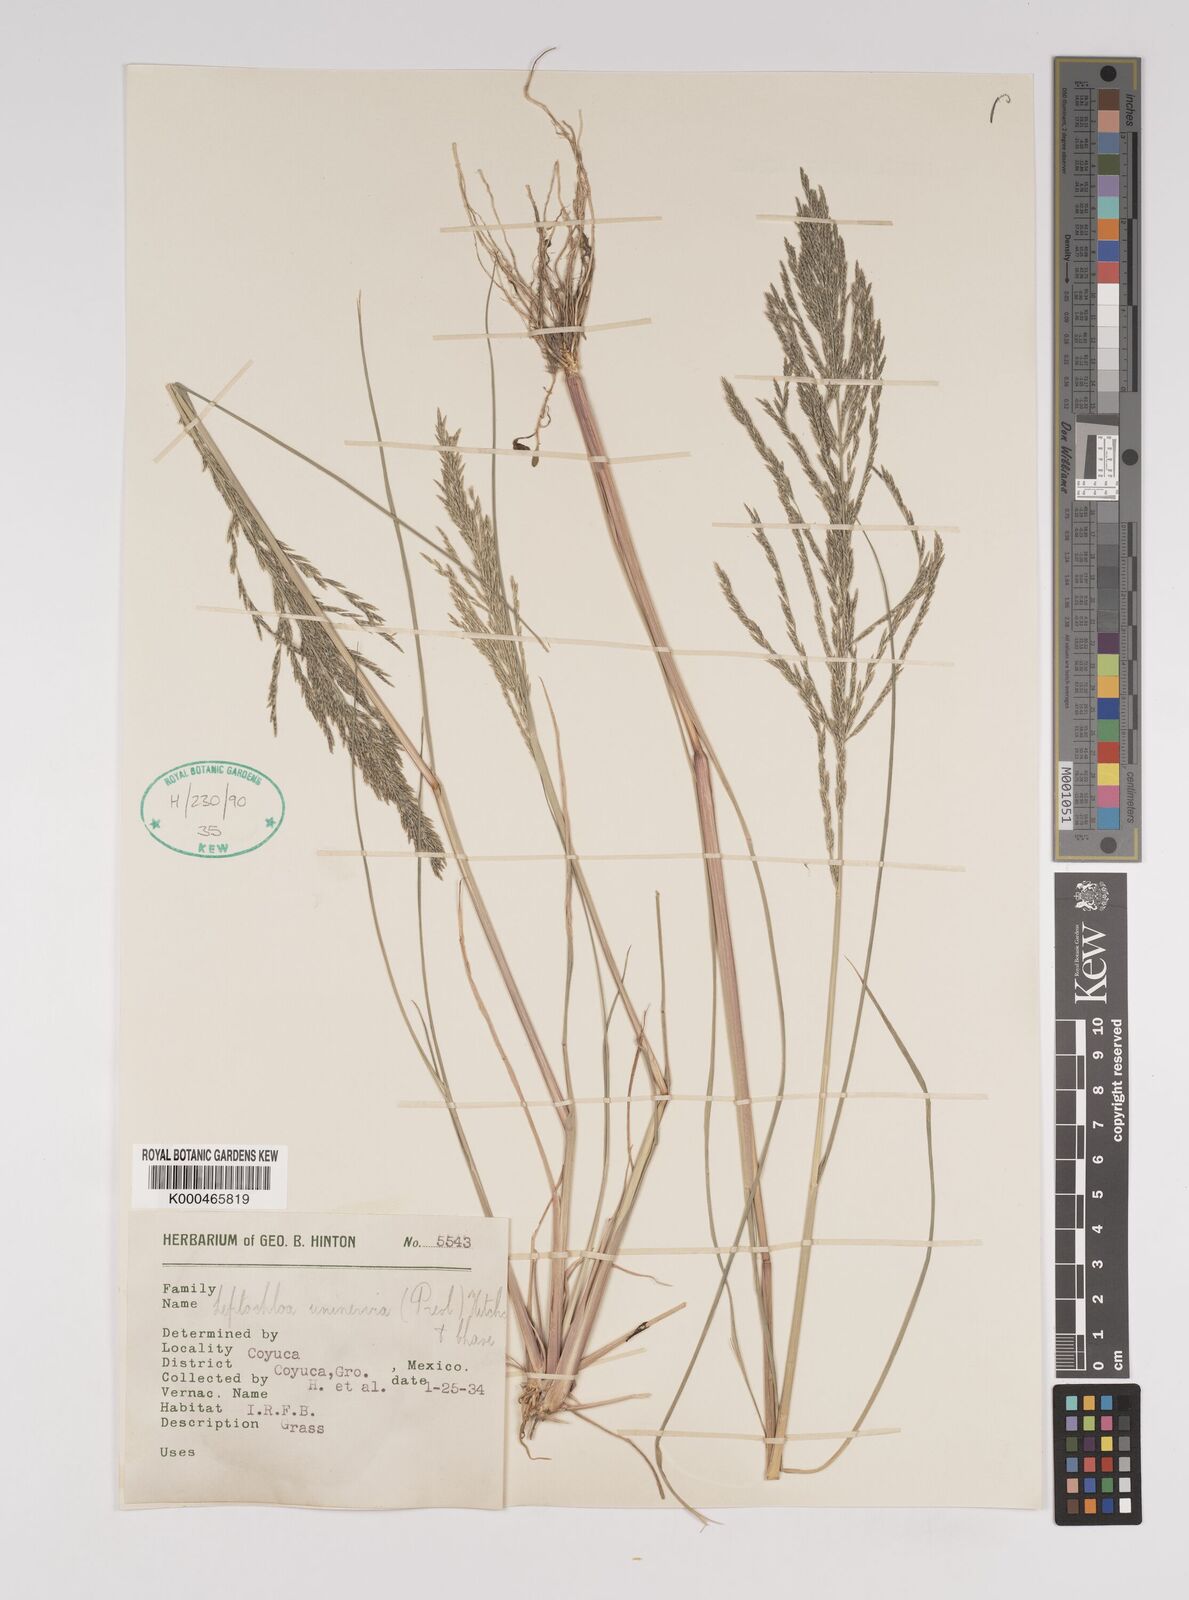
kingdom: Plantae
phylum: Tracheophyta
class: Liliopsida
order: Poales
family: Poaceae
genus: Diplachne
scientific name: Diplachne fusca
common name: Brown beetle grass
